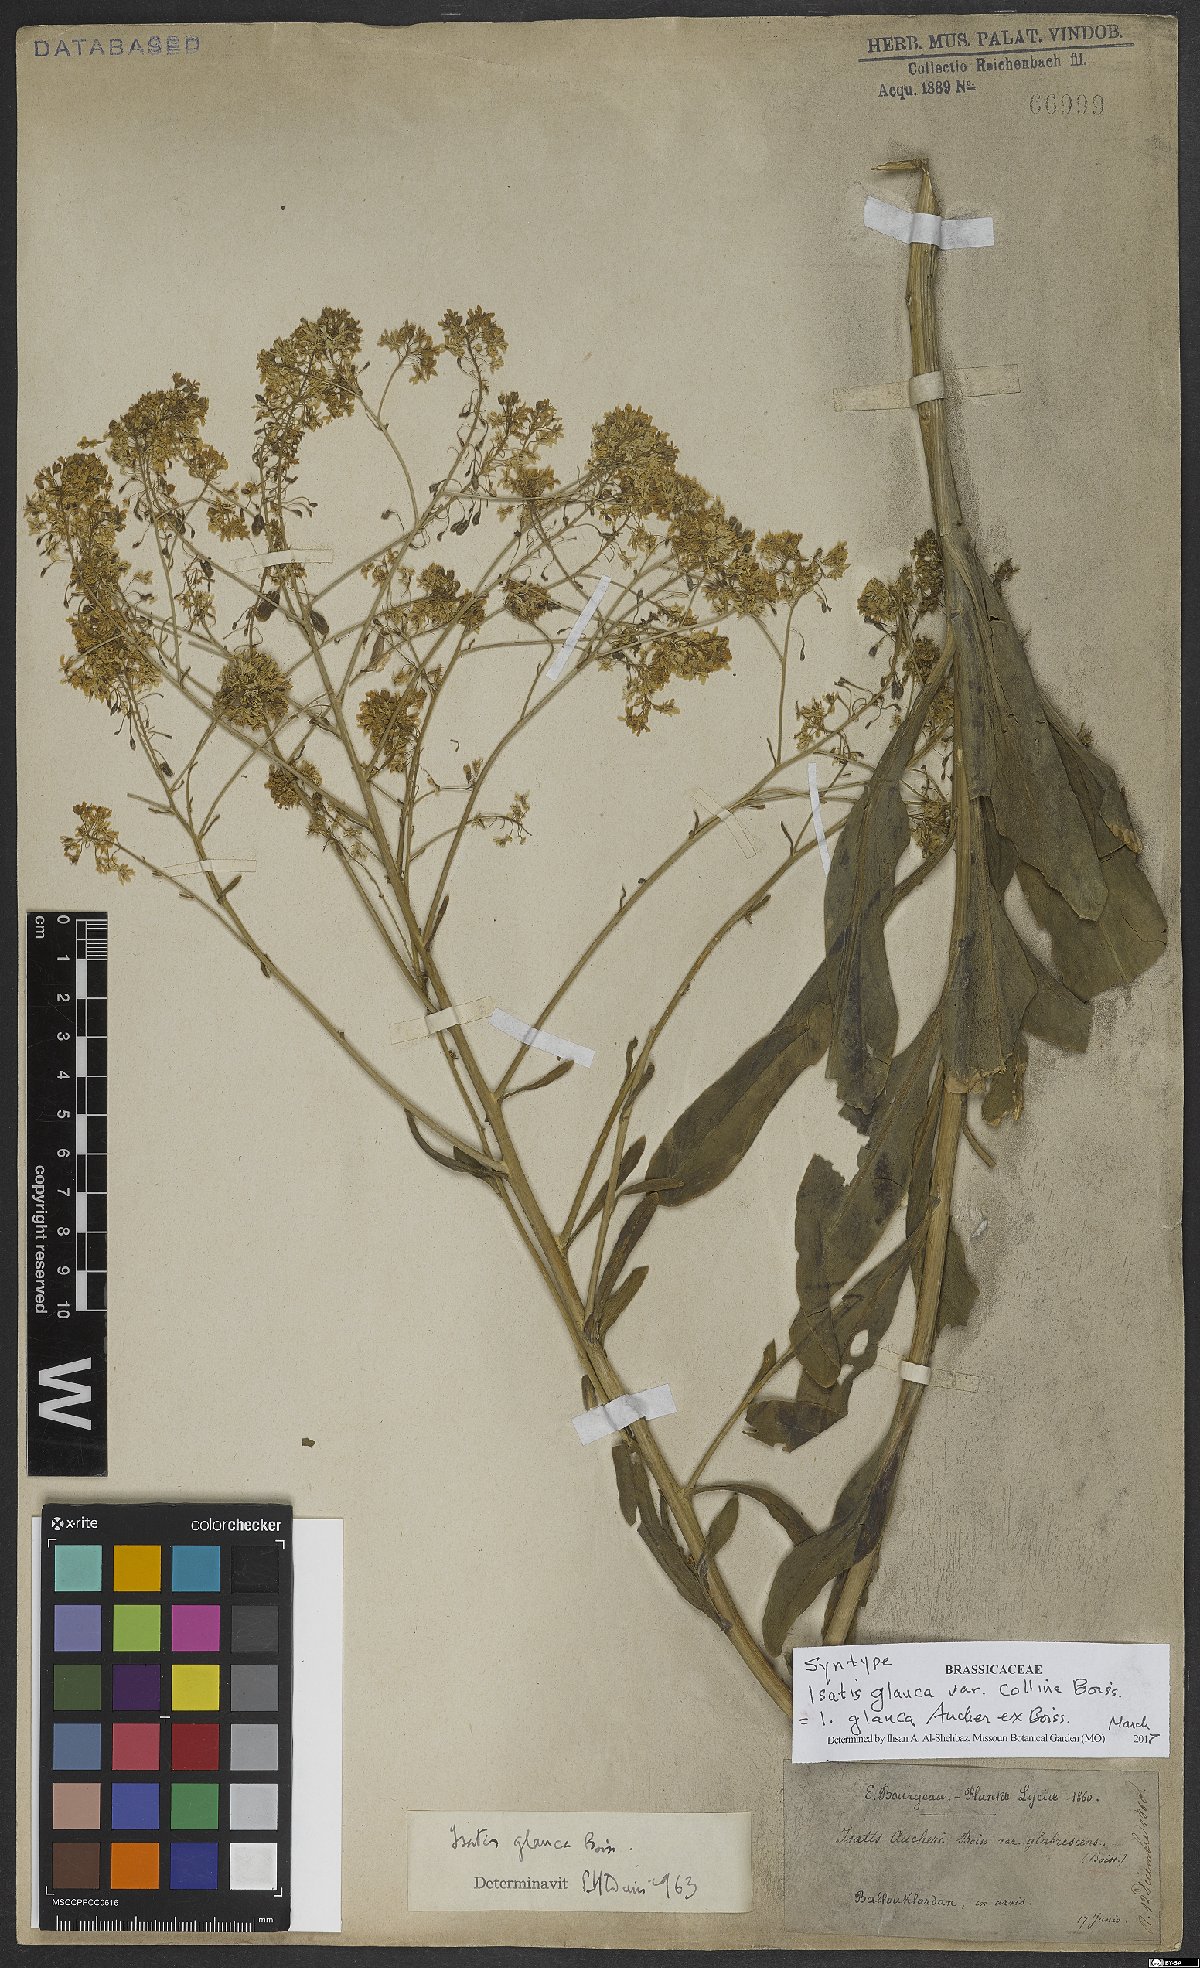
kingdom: Plantae
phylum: Tracheophyta
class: Magnoliopsida
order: Brassicales
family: Brassicaceae
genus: Isatis
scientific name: Isatis glauca
